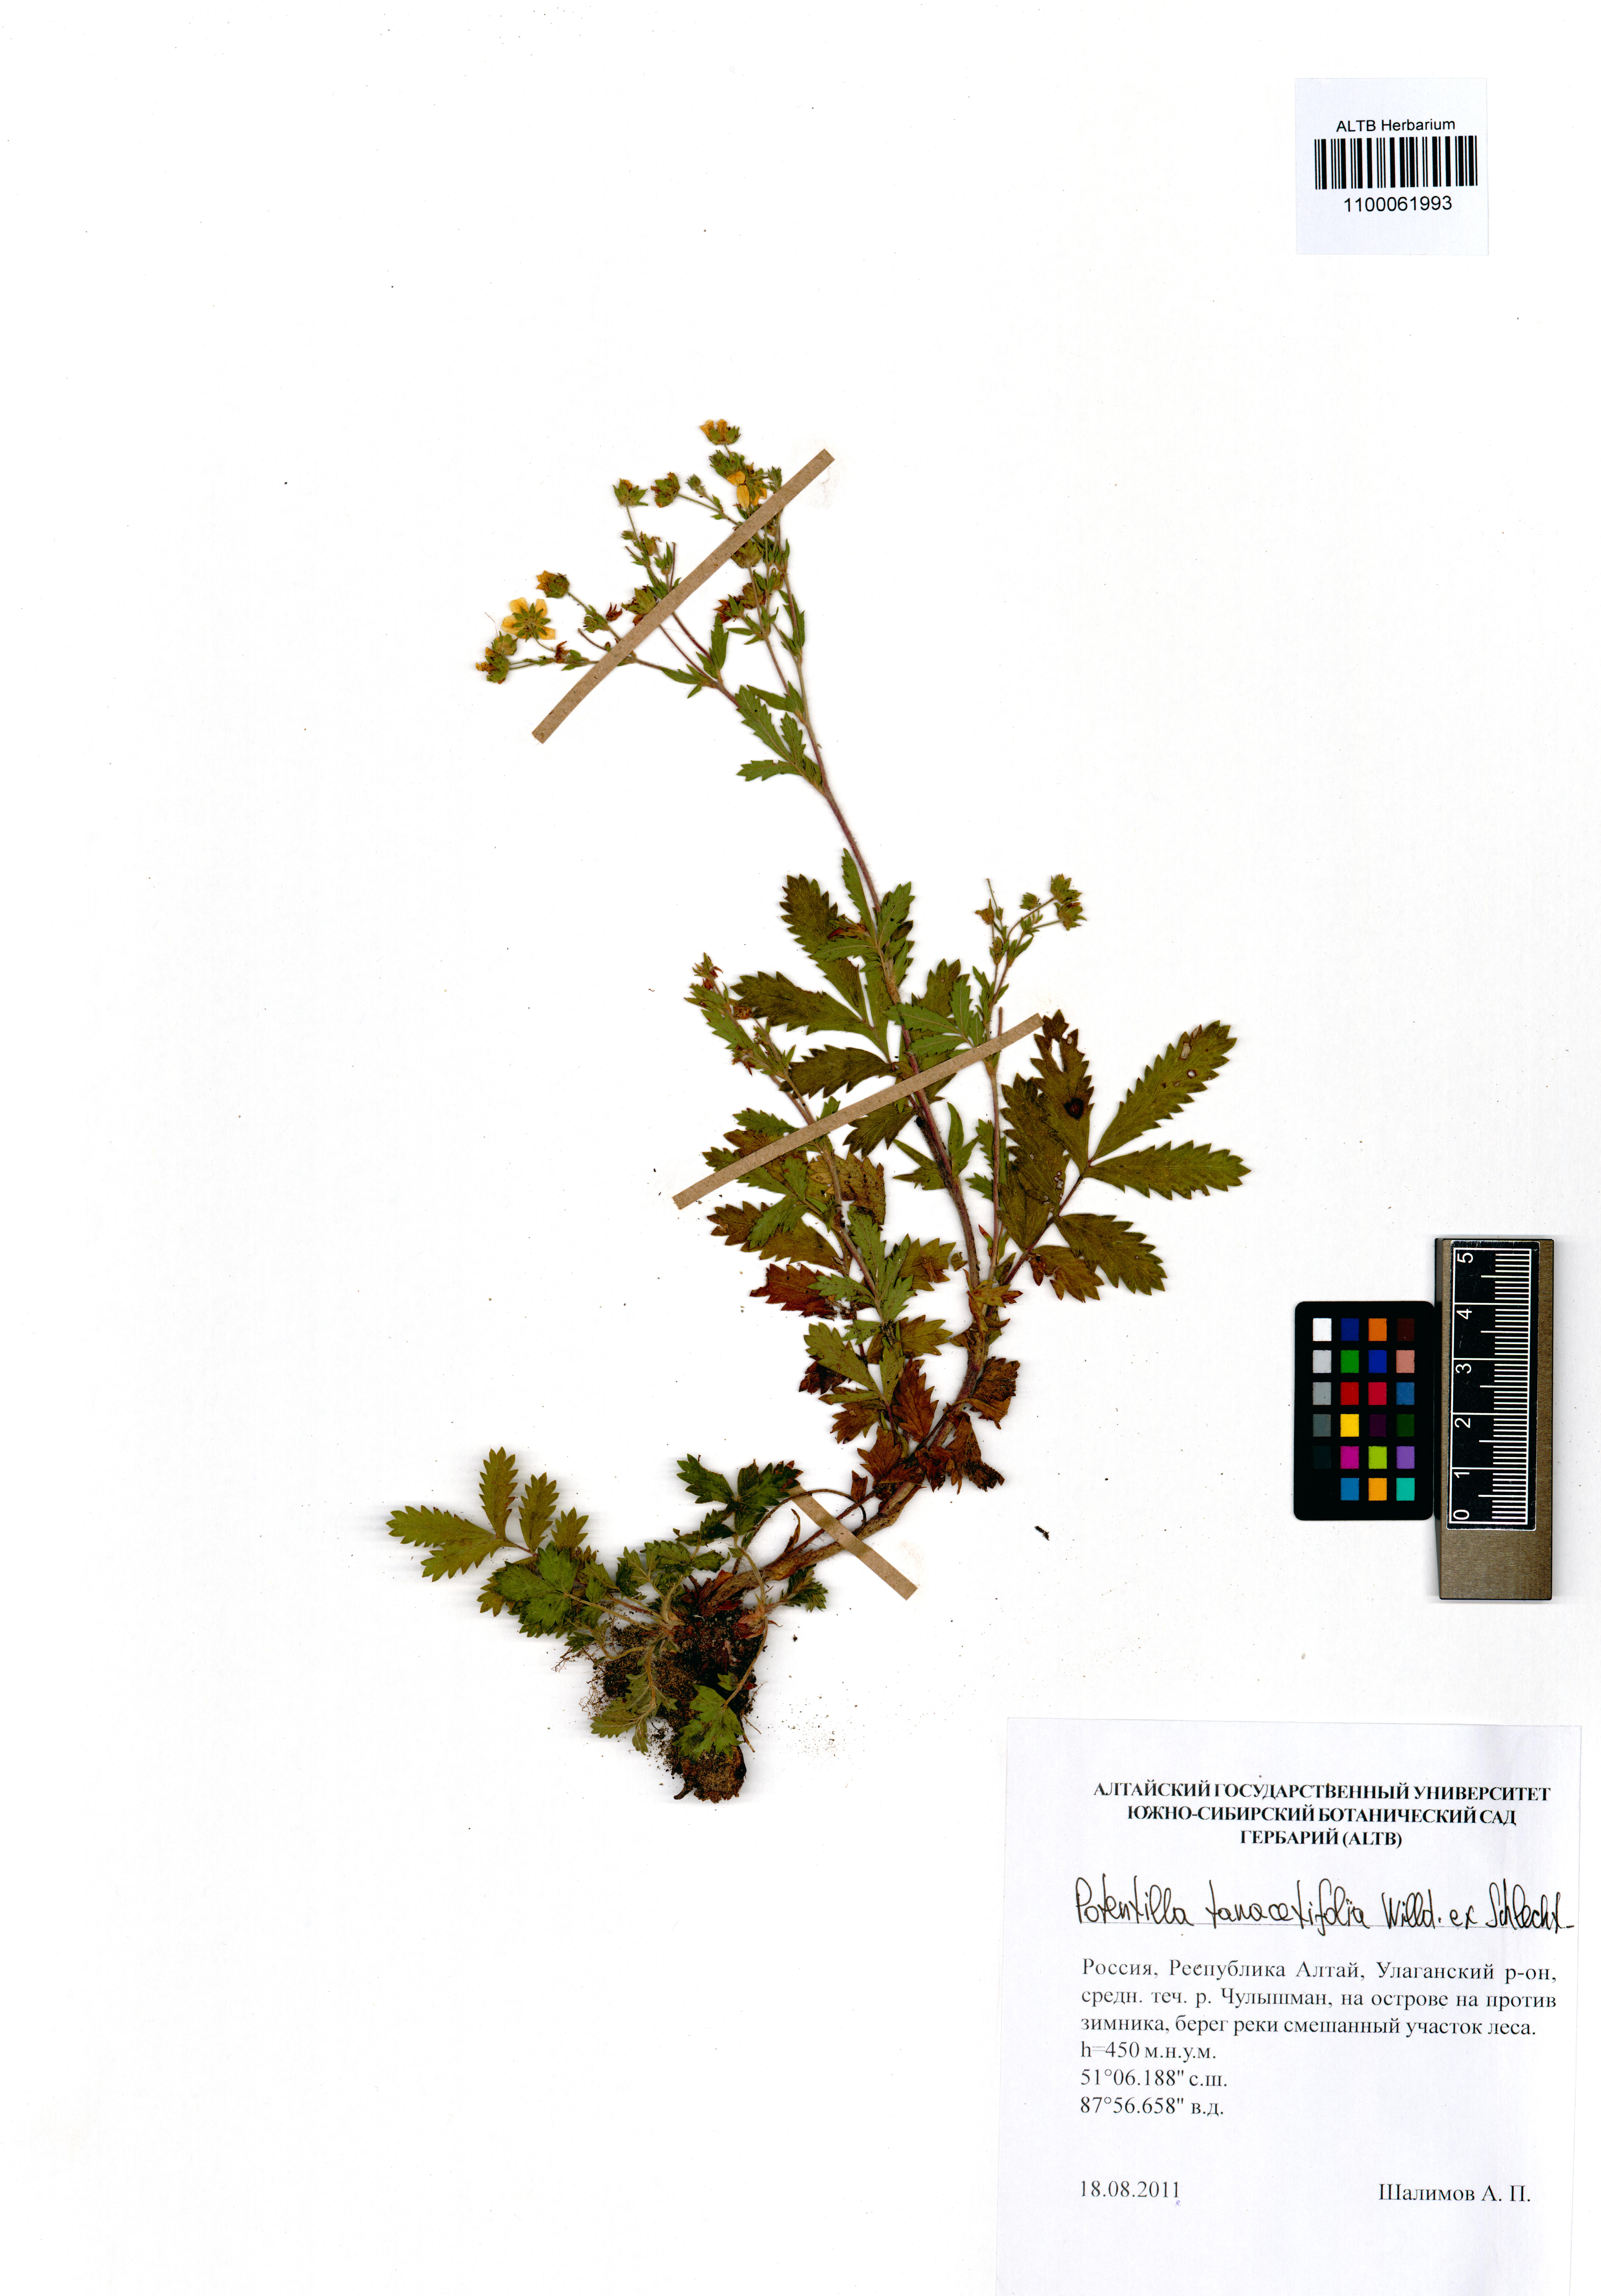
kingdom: Plantae
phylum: Tracheophyta
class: Magnoliopsida
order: Rosales
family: Rosaceae
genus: Potentilla
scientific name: Potentilla tanacetifolia
